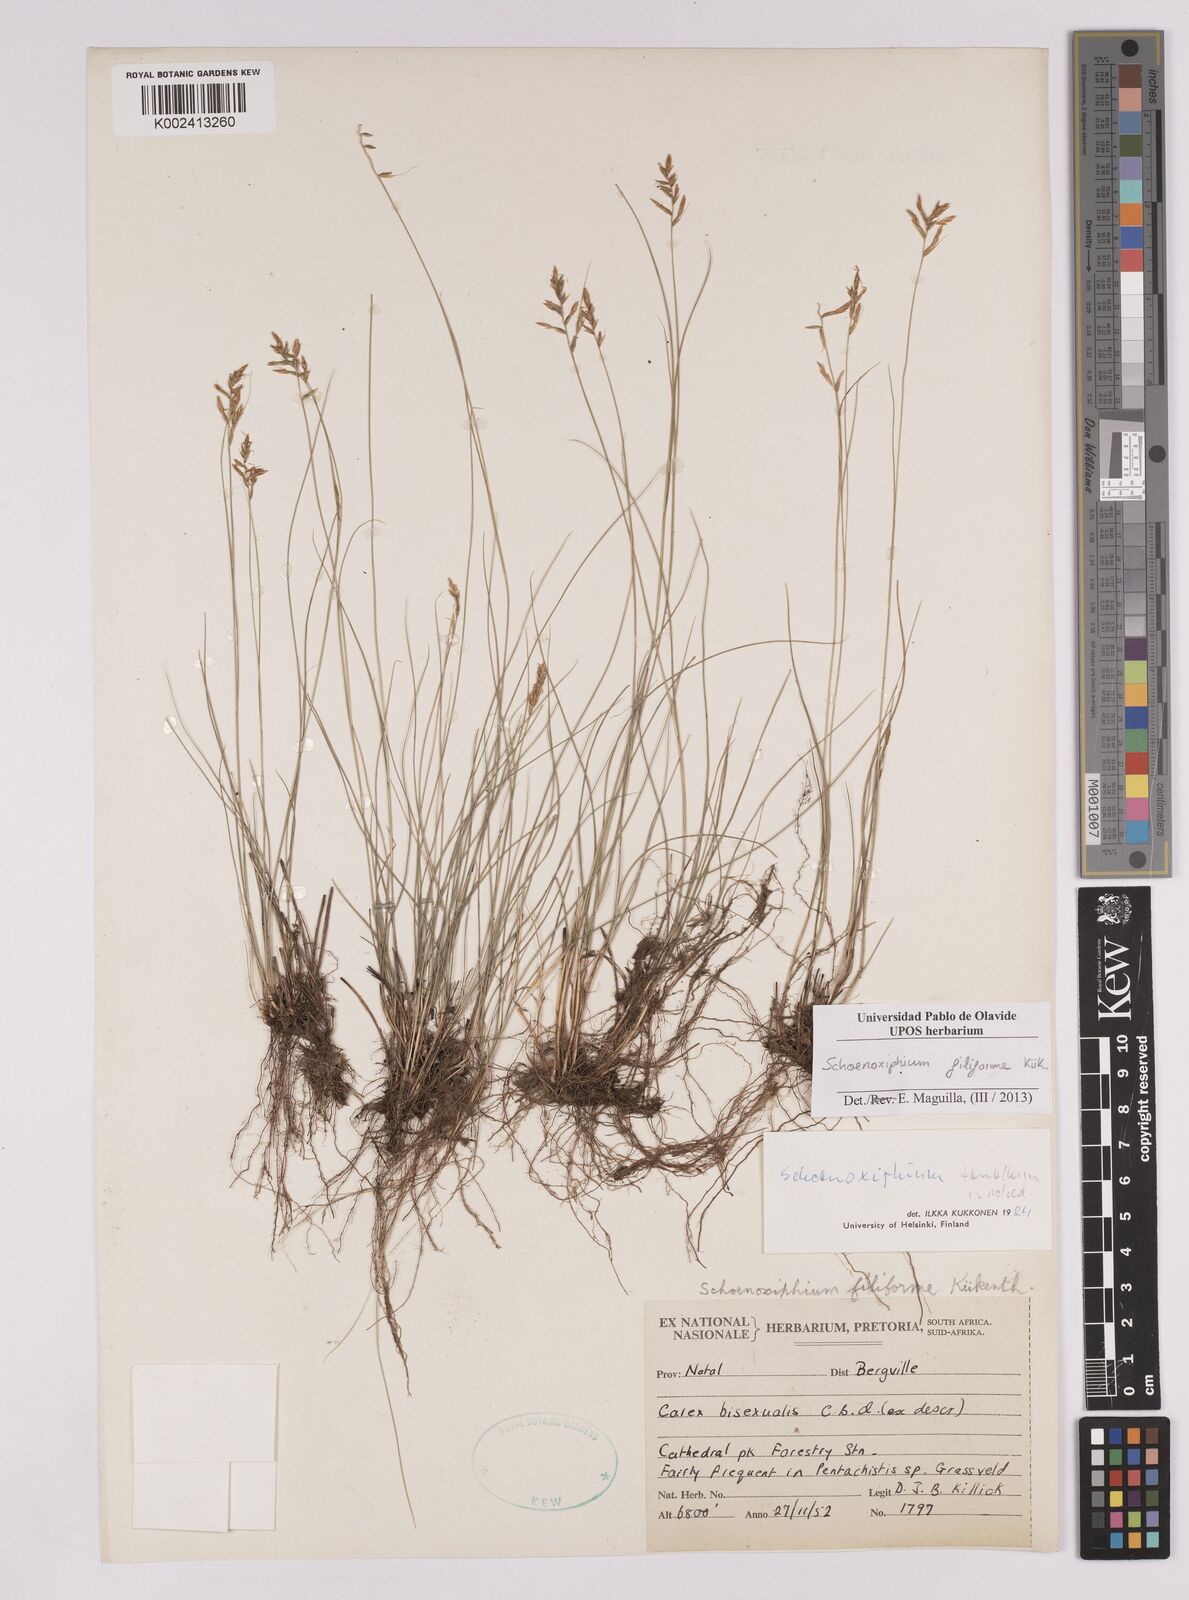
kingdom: Plantae
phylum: Tracheophyta
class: Liliopsida
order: Poales
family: Cyperaceae
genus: Carex
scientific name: Carex killickii
